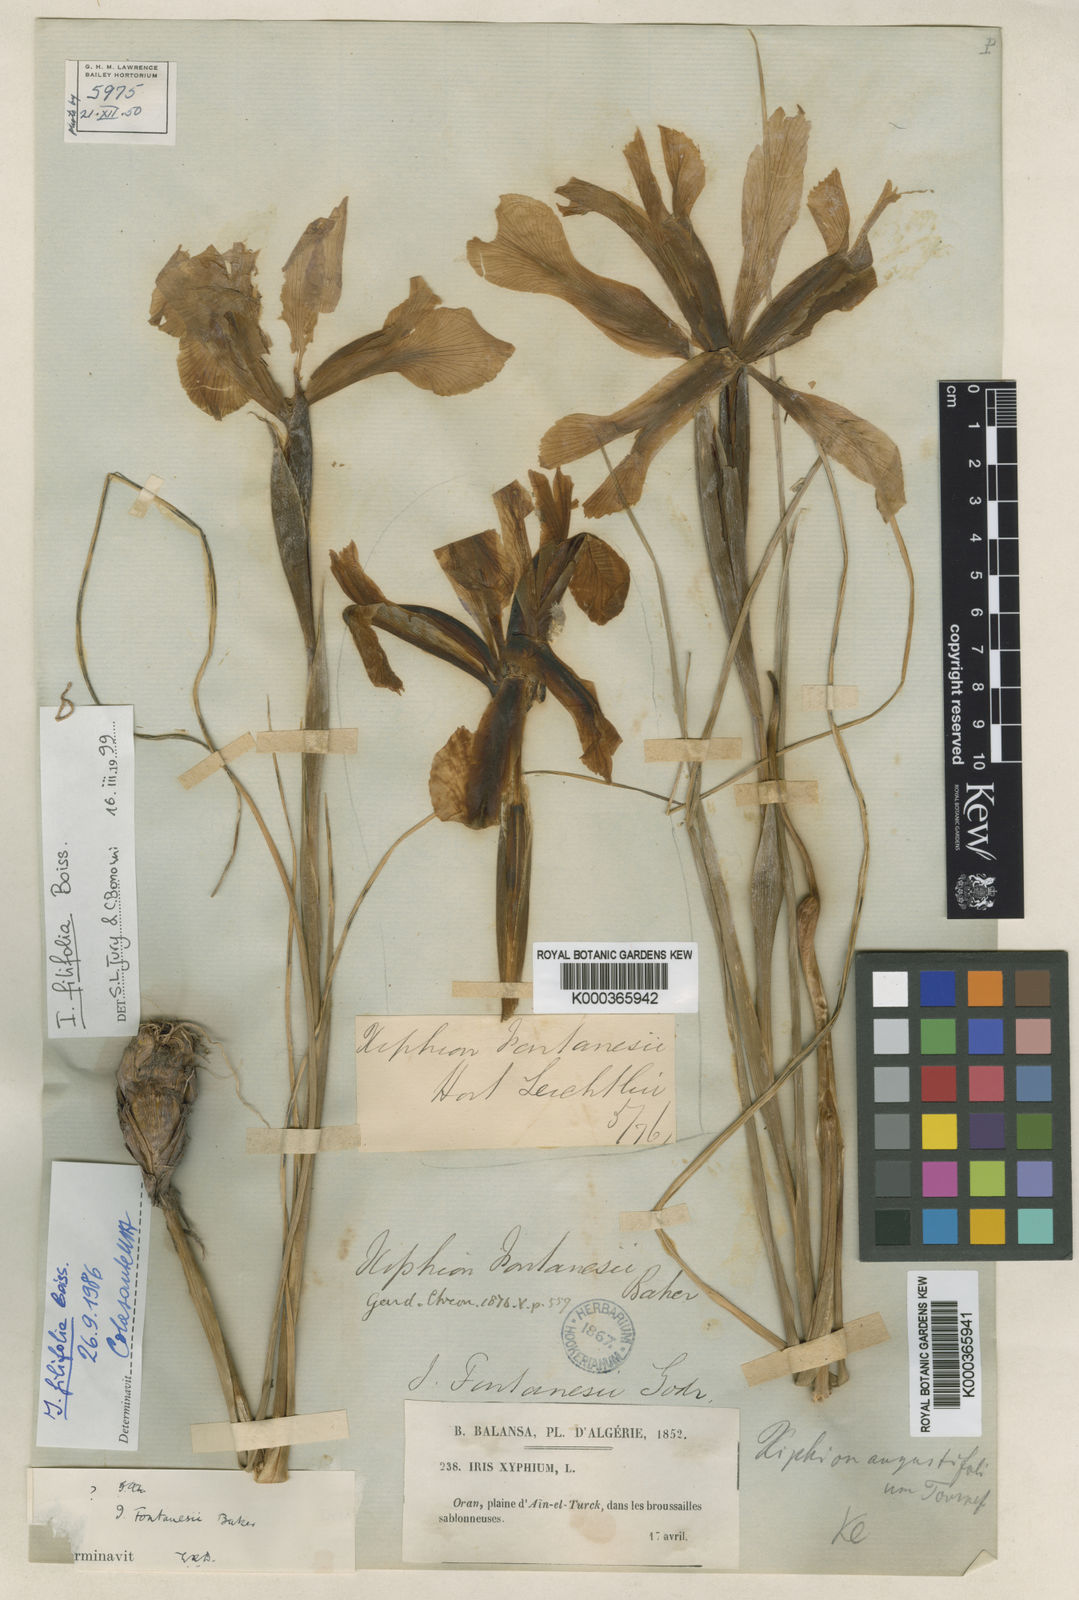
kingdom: Plantae
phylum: Tracheophyta
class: Liliopsida
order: Asparagales
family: Iridaceae
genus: Iris
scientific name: Iris filifolia
